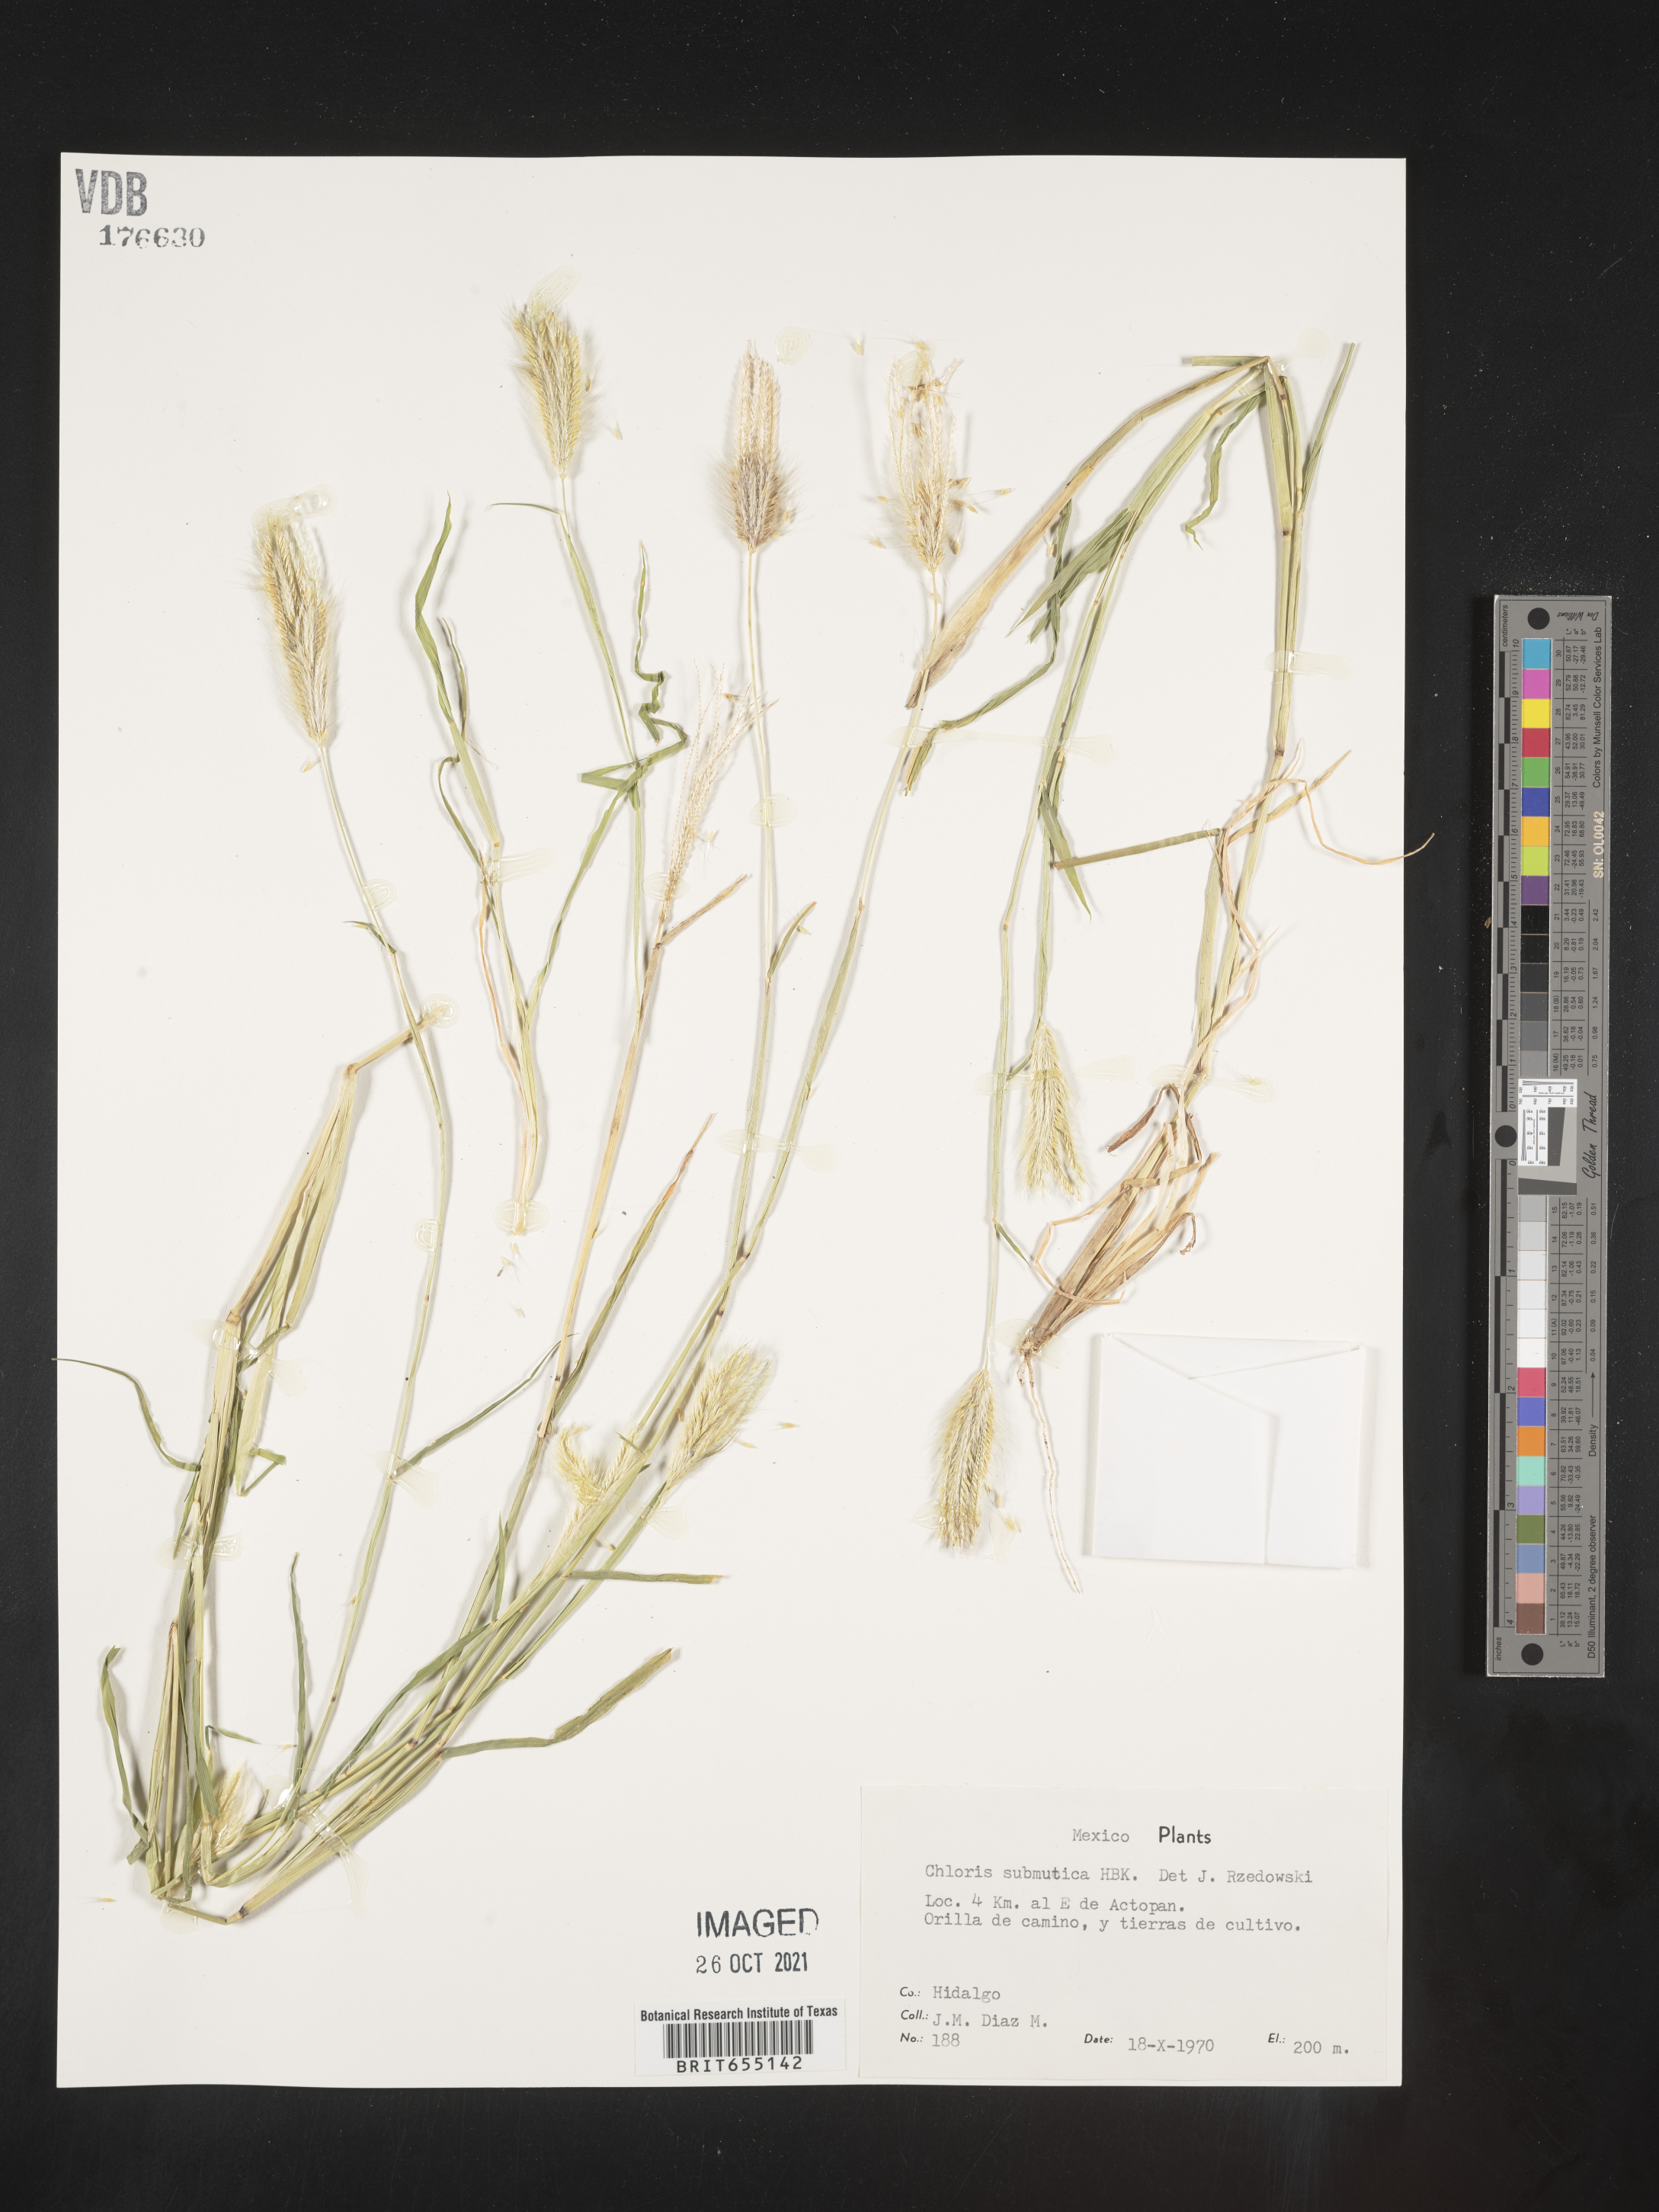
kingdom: Plantae
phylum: Tracheophyta
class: Liliopsida
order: Poales
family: Poaceae
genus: Chloris
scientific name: Chloris
